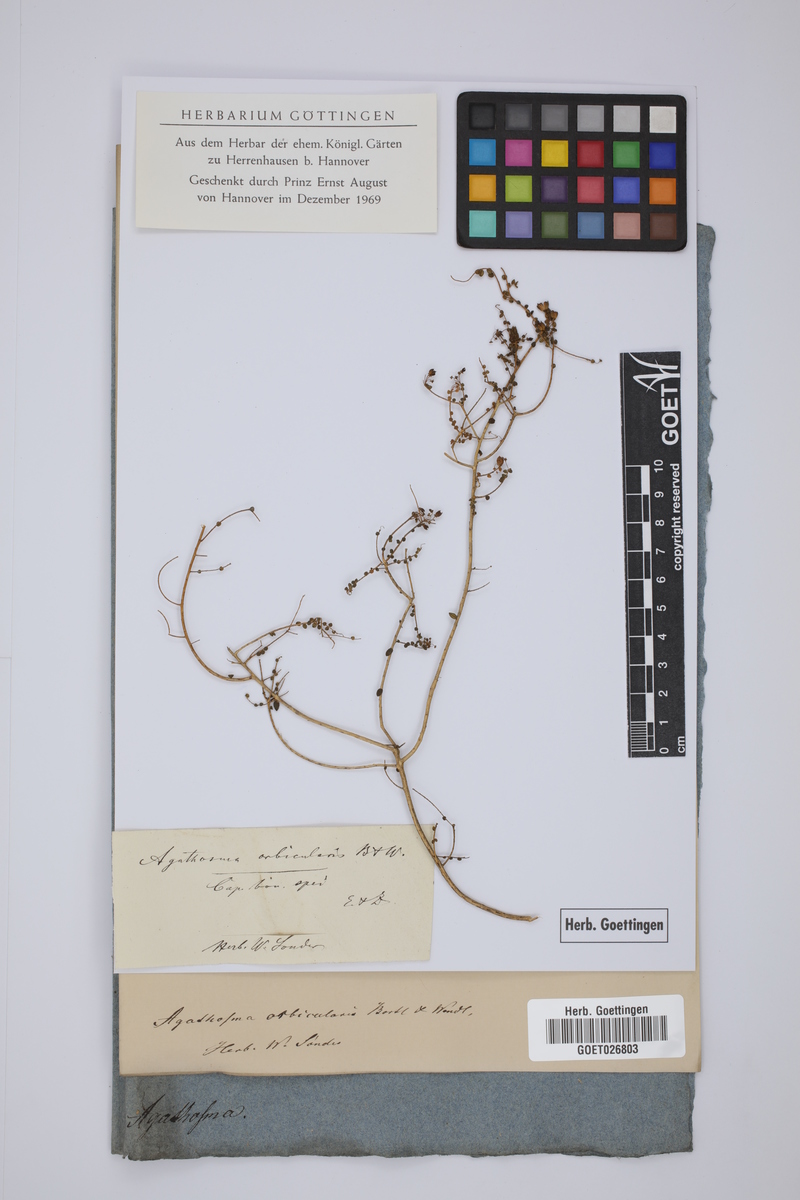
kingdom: Plantae
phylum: Tracheophyta
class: Magnoliopsida
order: Sapindales
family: Rutaceae
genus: Agathosma
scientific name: Agathosma orbicularis
